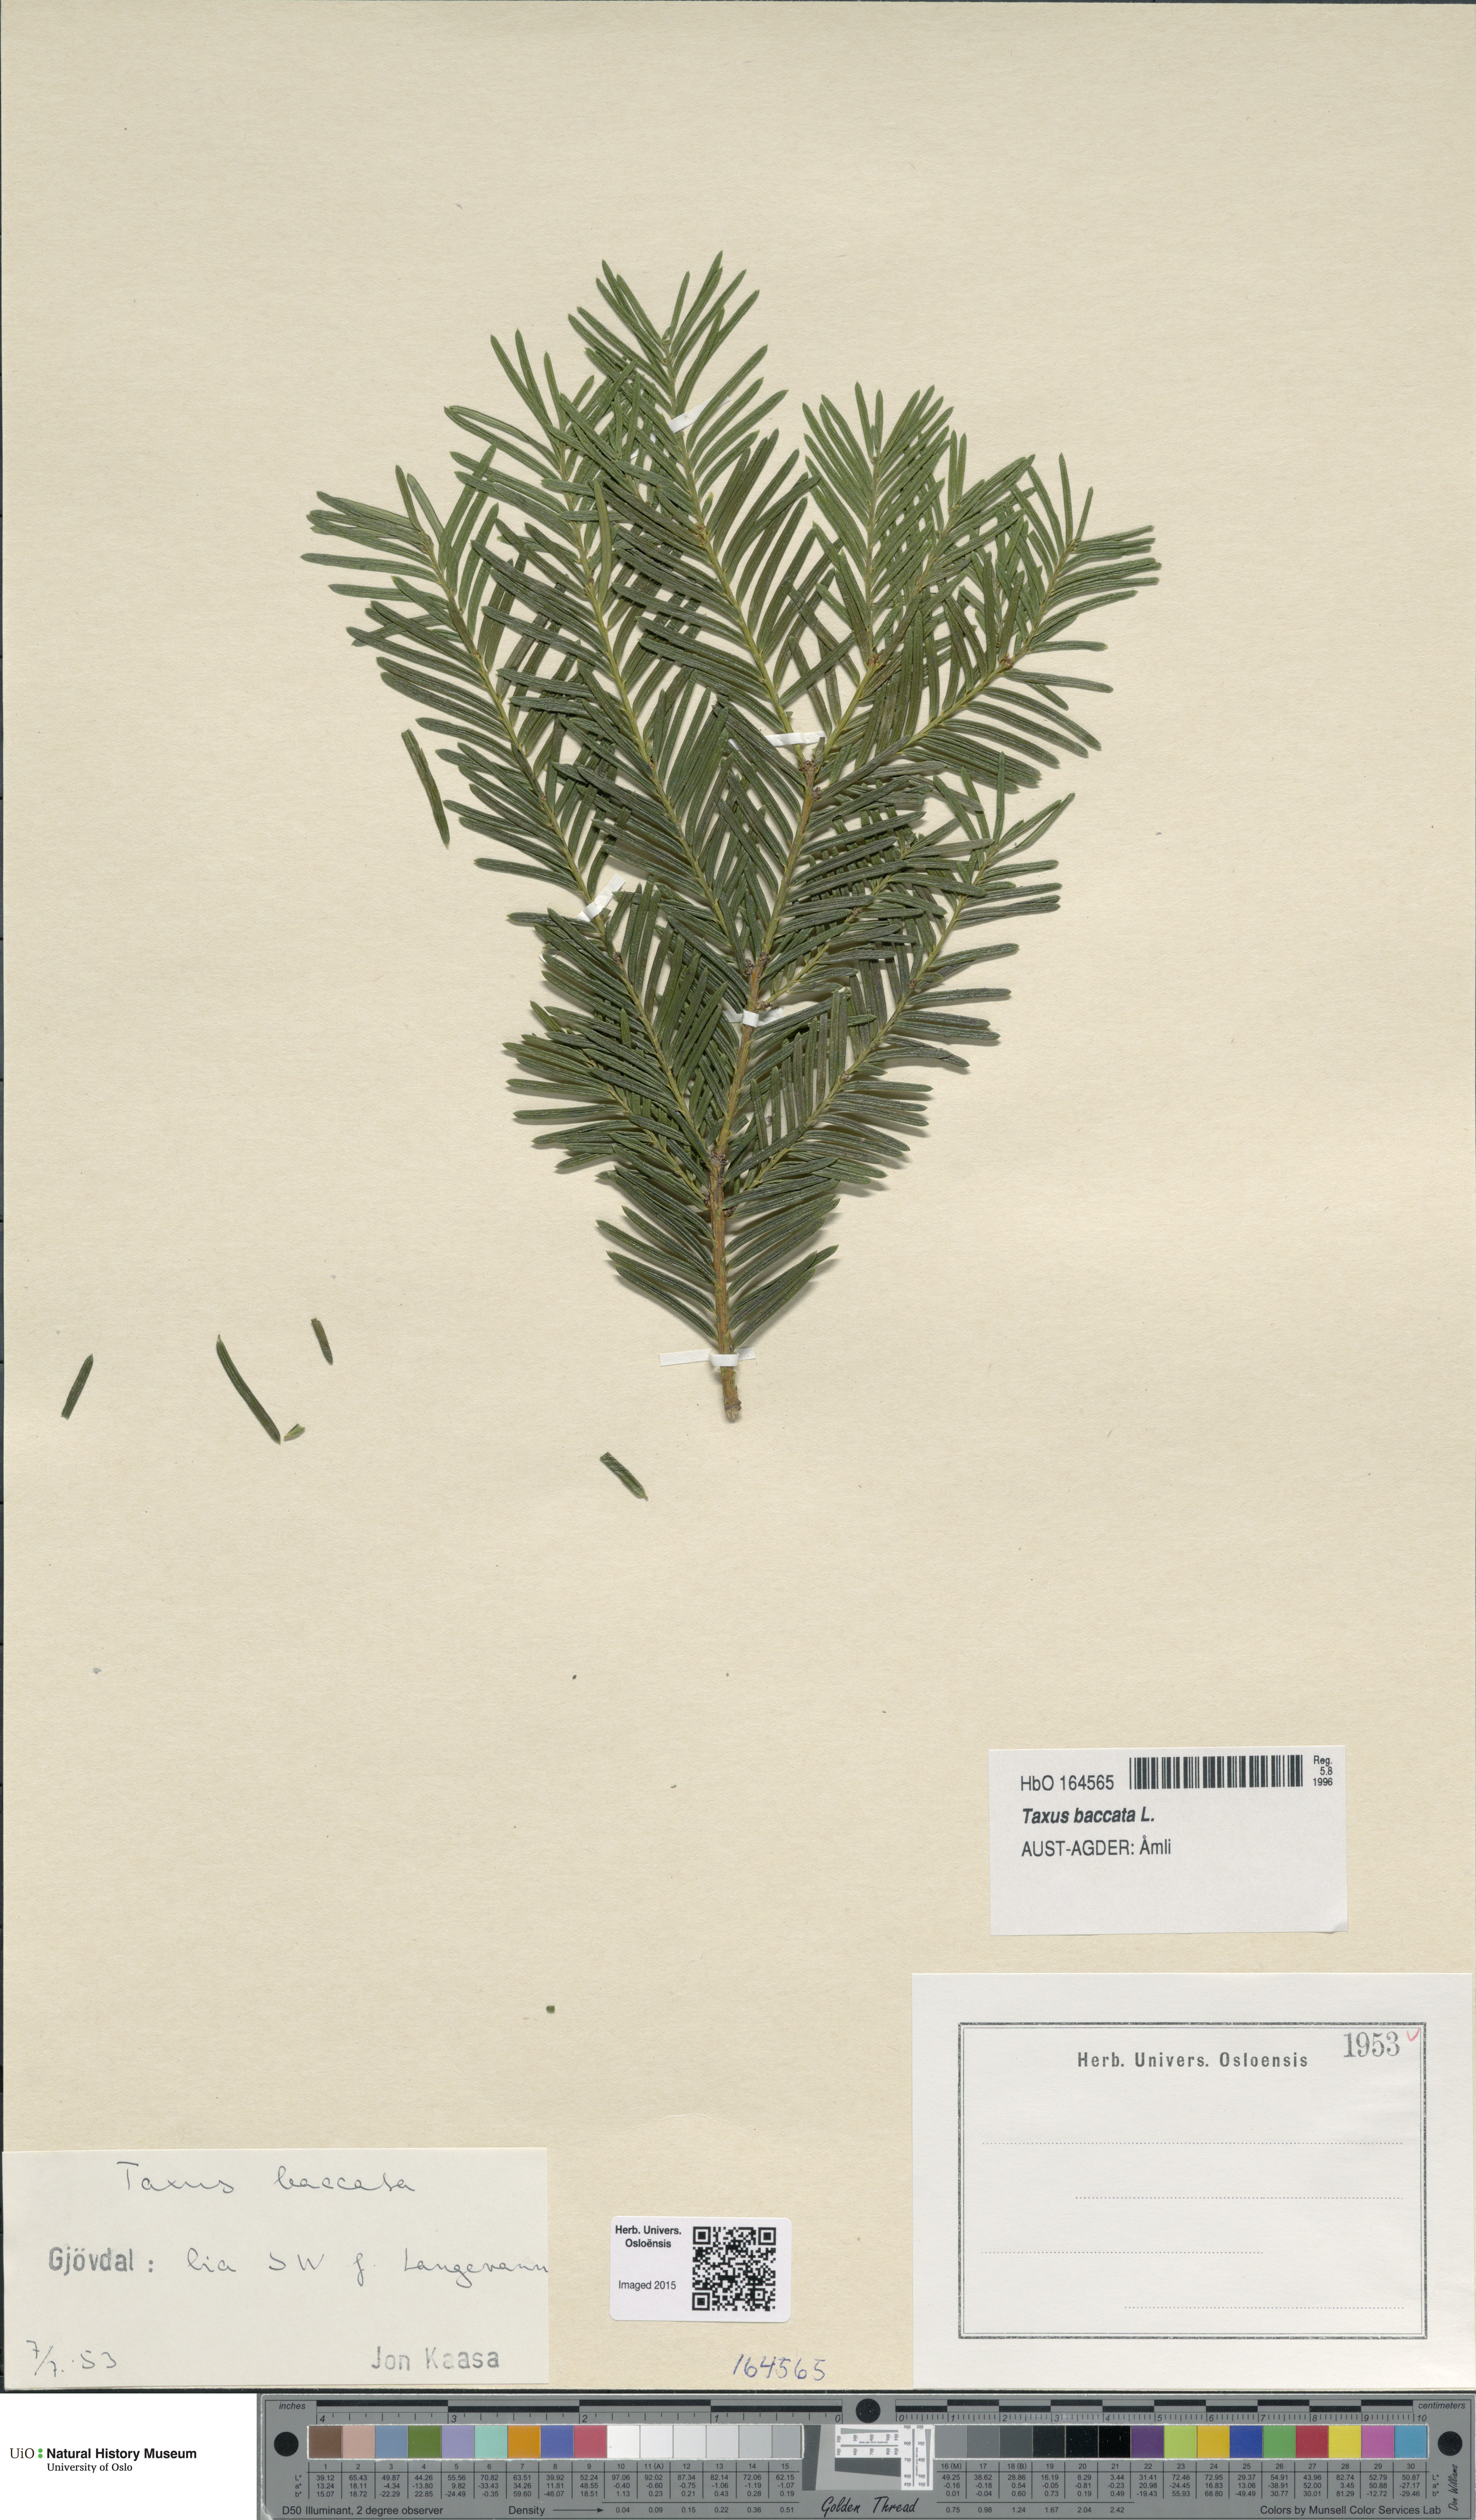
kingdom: Plantae
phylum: Tracheophyta
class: Pinopsida
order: Pinales
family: Taxaceae
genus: Taxus
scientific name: Taxus baccata
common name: Yew
